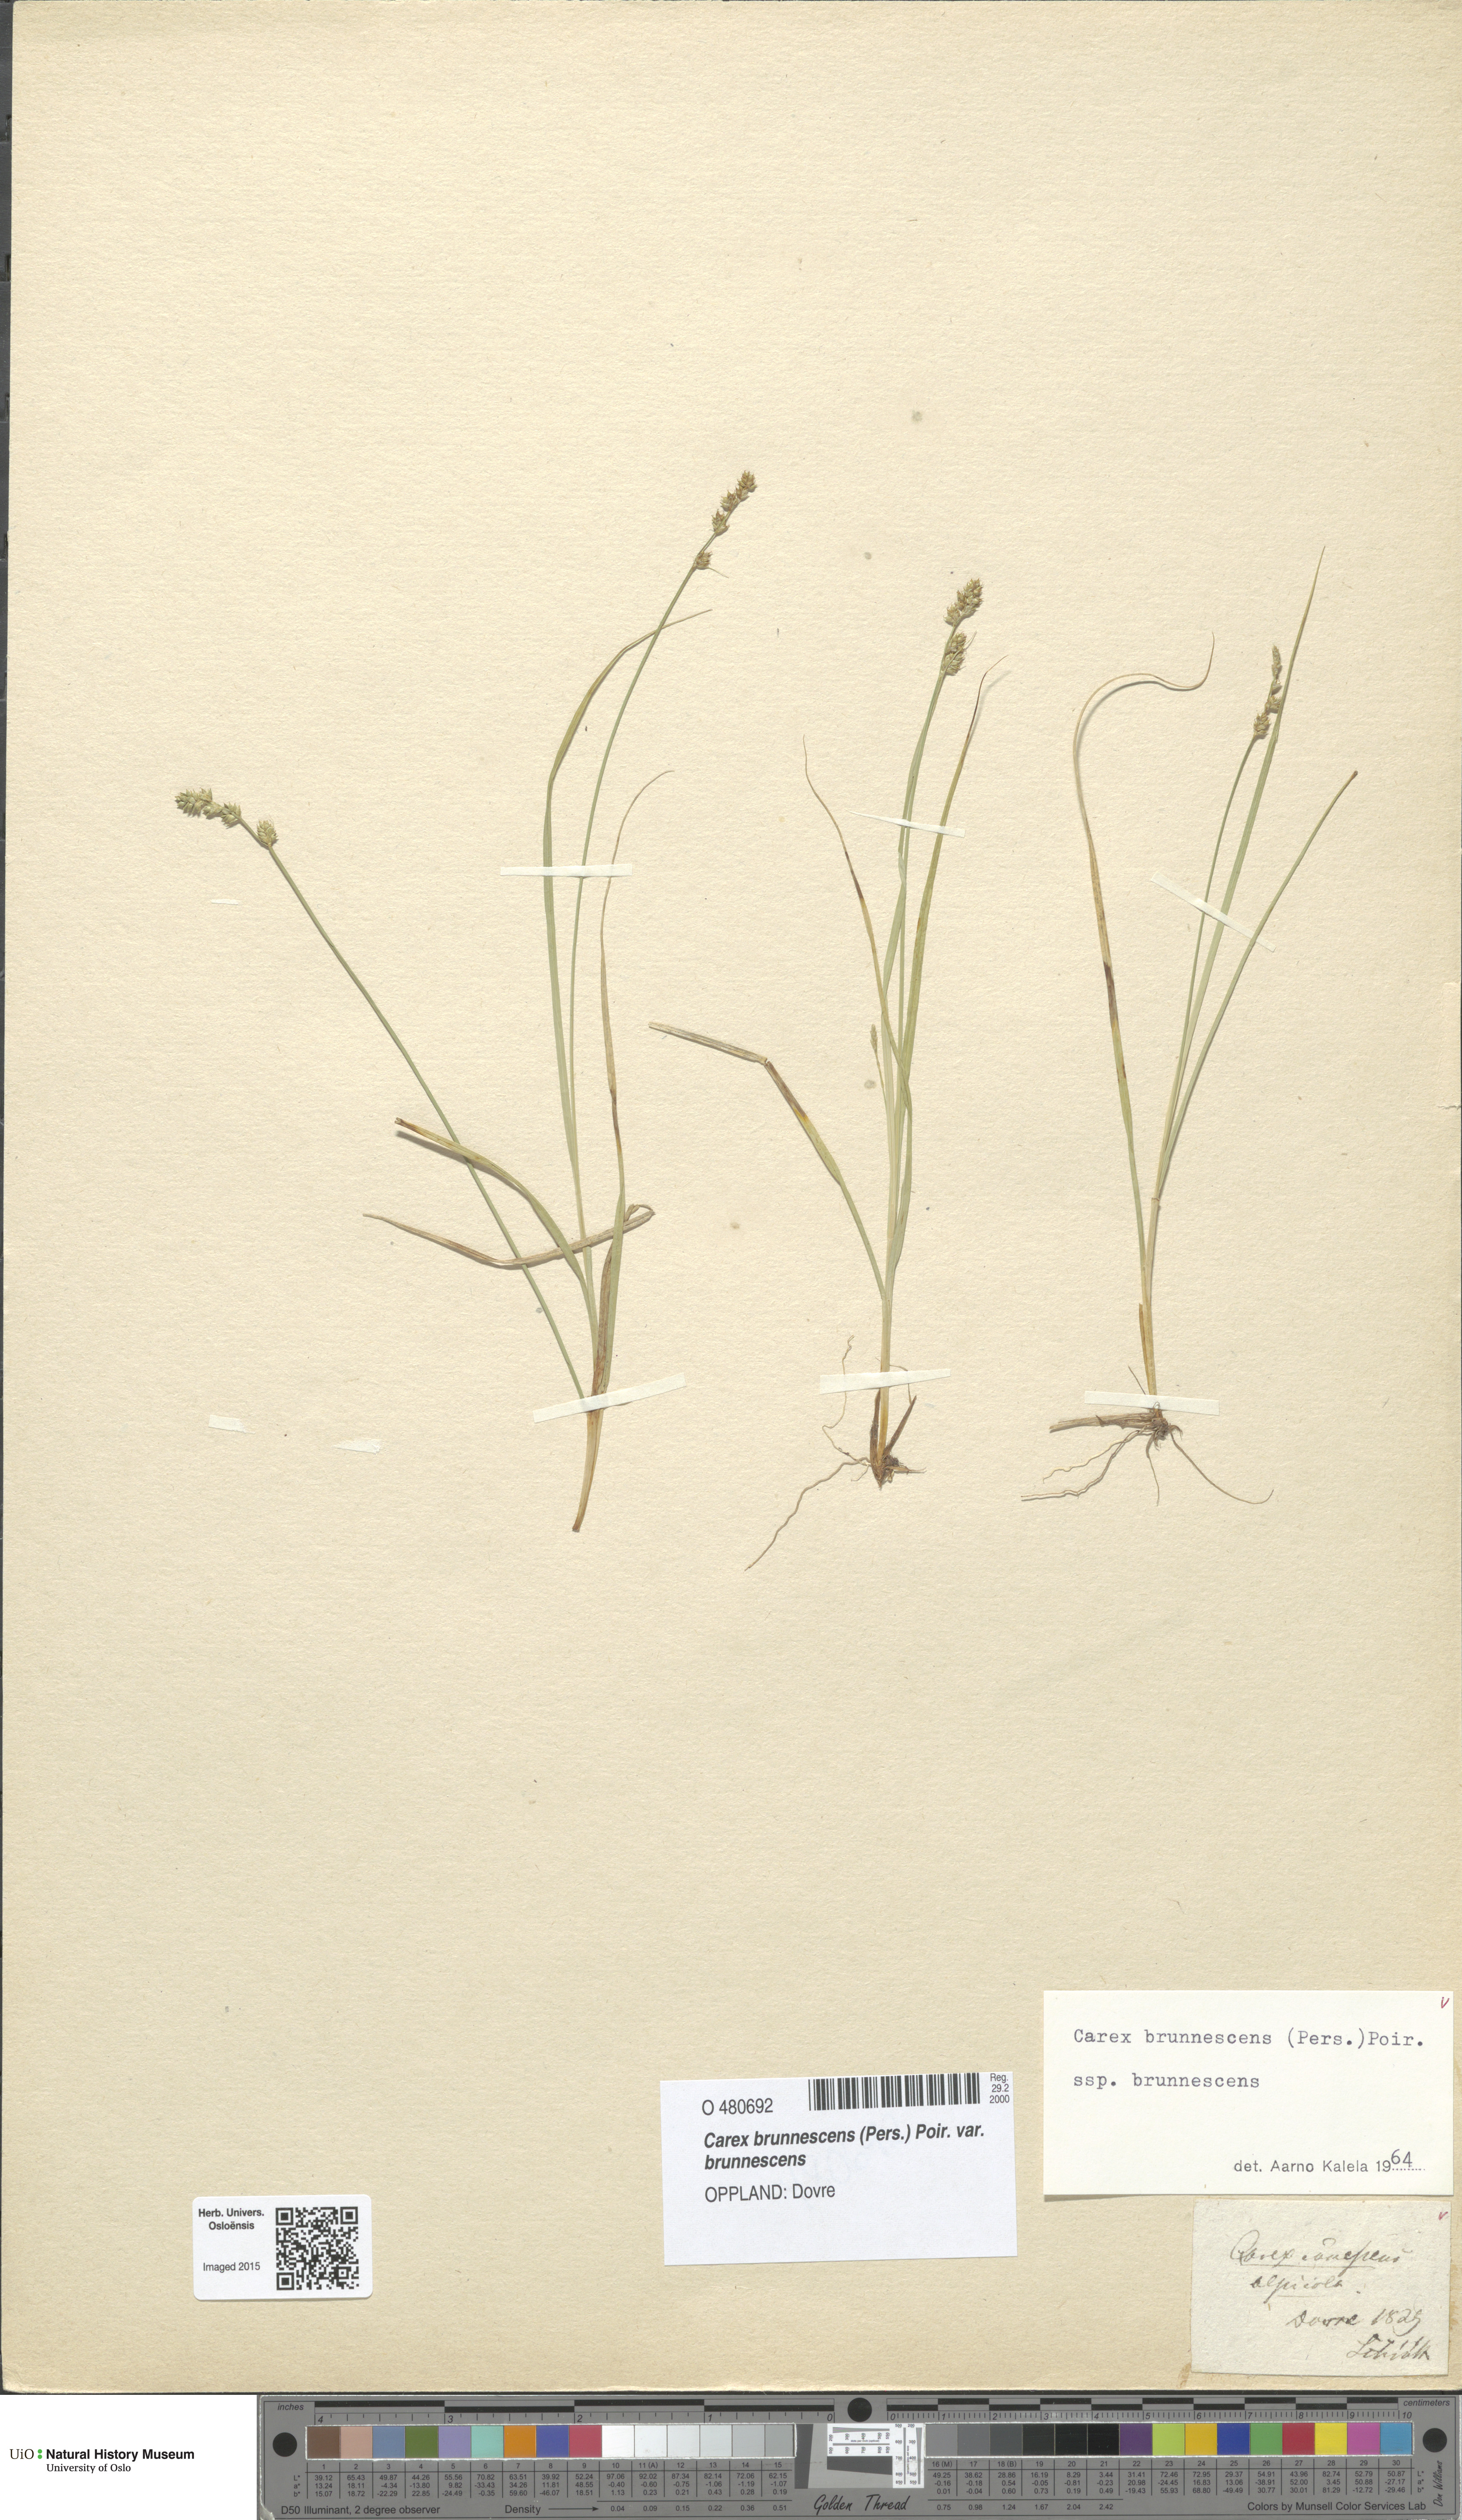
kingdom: Plantae
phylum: Tracheophyta
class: Liliopsida
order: Poales
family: Cyperaceae
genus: Carex
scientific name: Carex brunnescens
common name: Brown sedge
